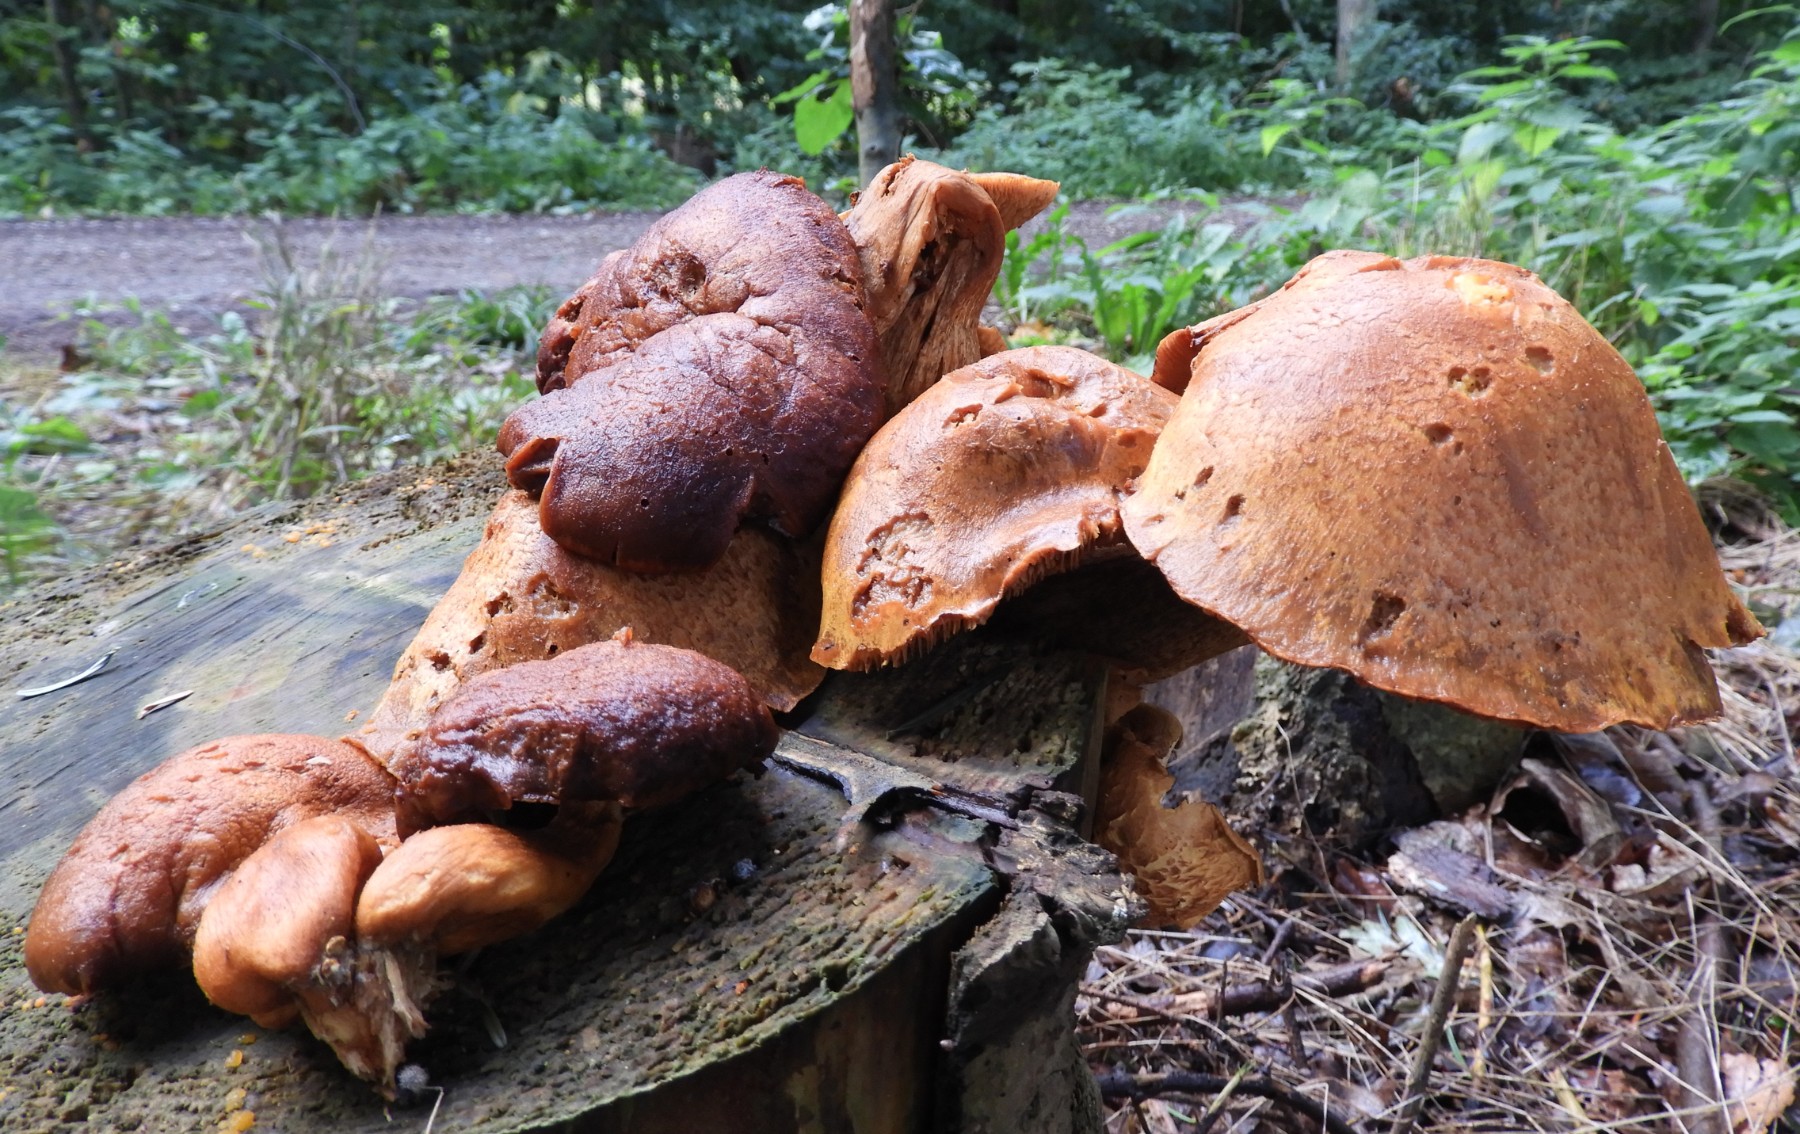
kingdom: Fungi
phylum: Basidiomycota
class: Agaricomycetes
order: Agaricales
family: Hymenogastraceae
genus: Gymnopilus
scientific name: Gymnopilus spectabilis
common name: fibret flammehat
